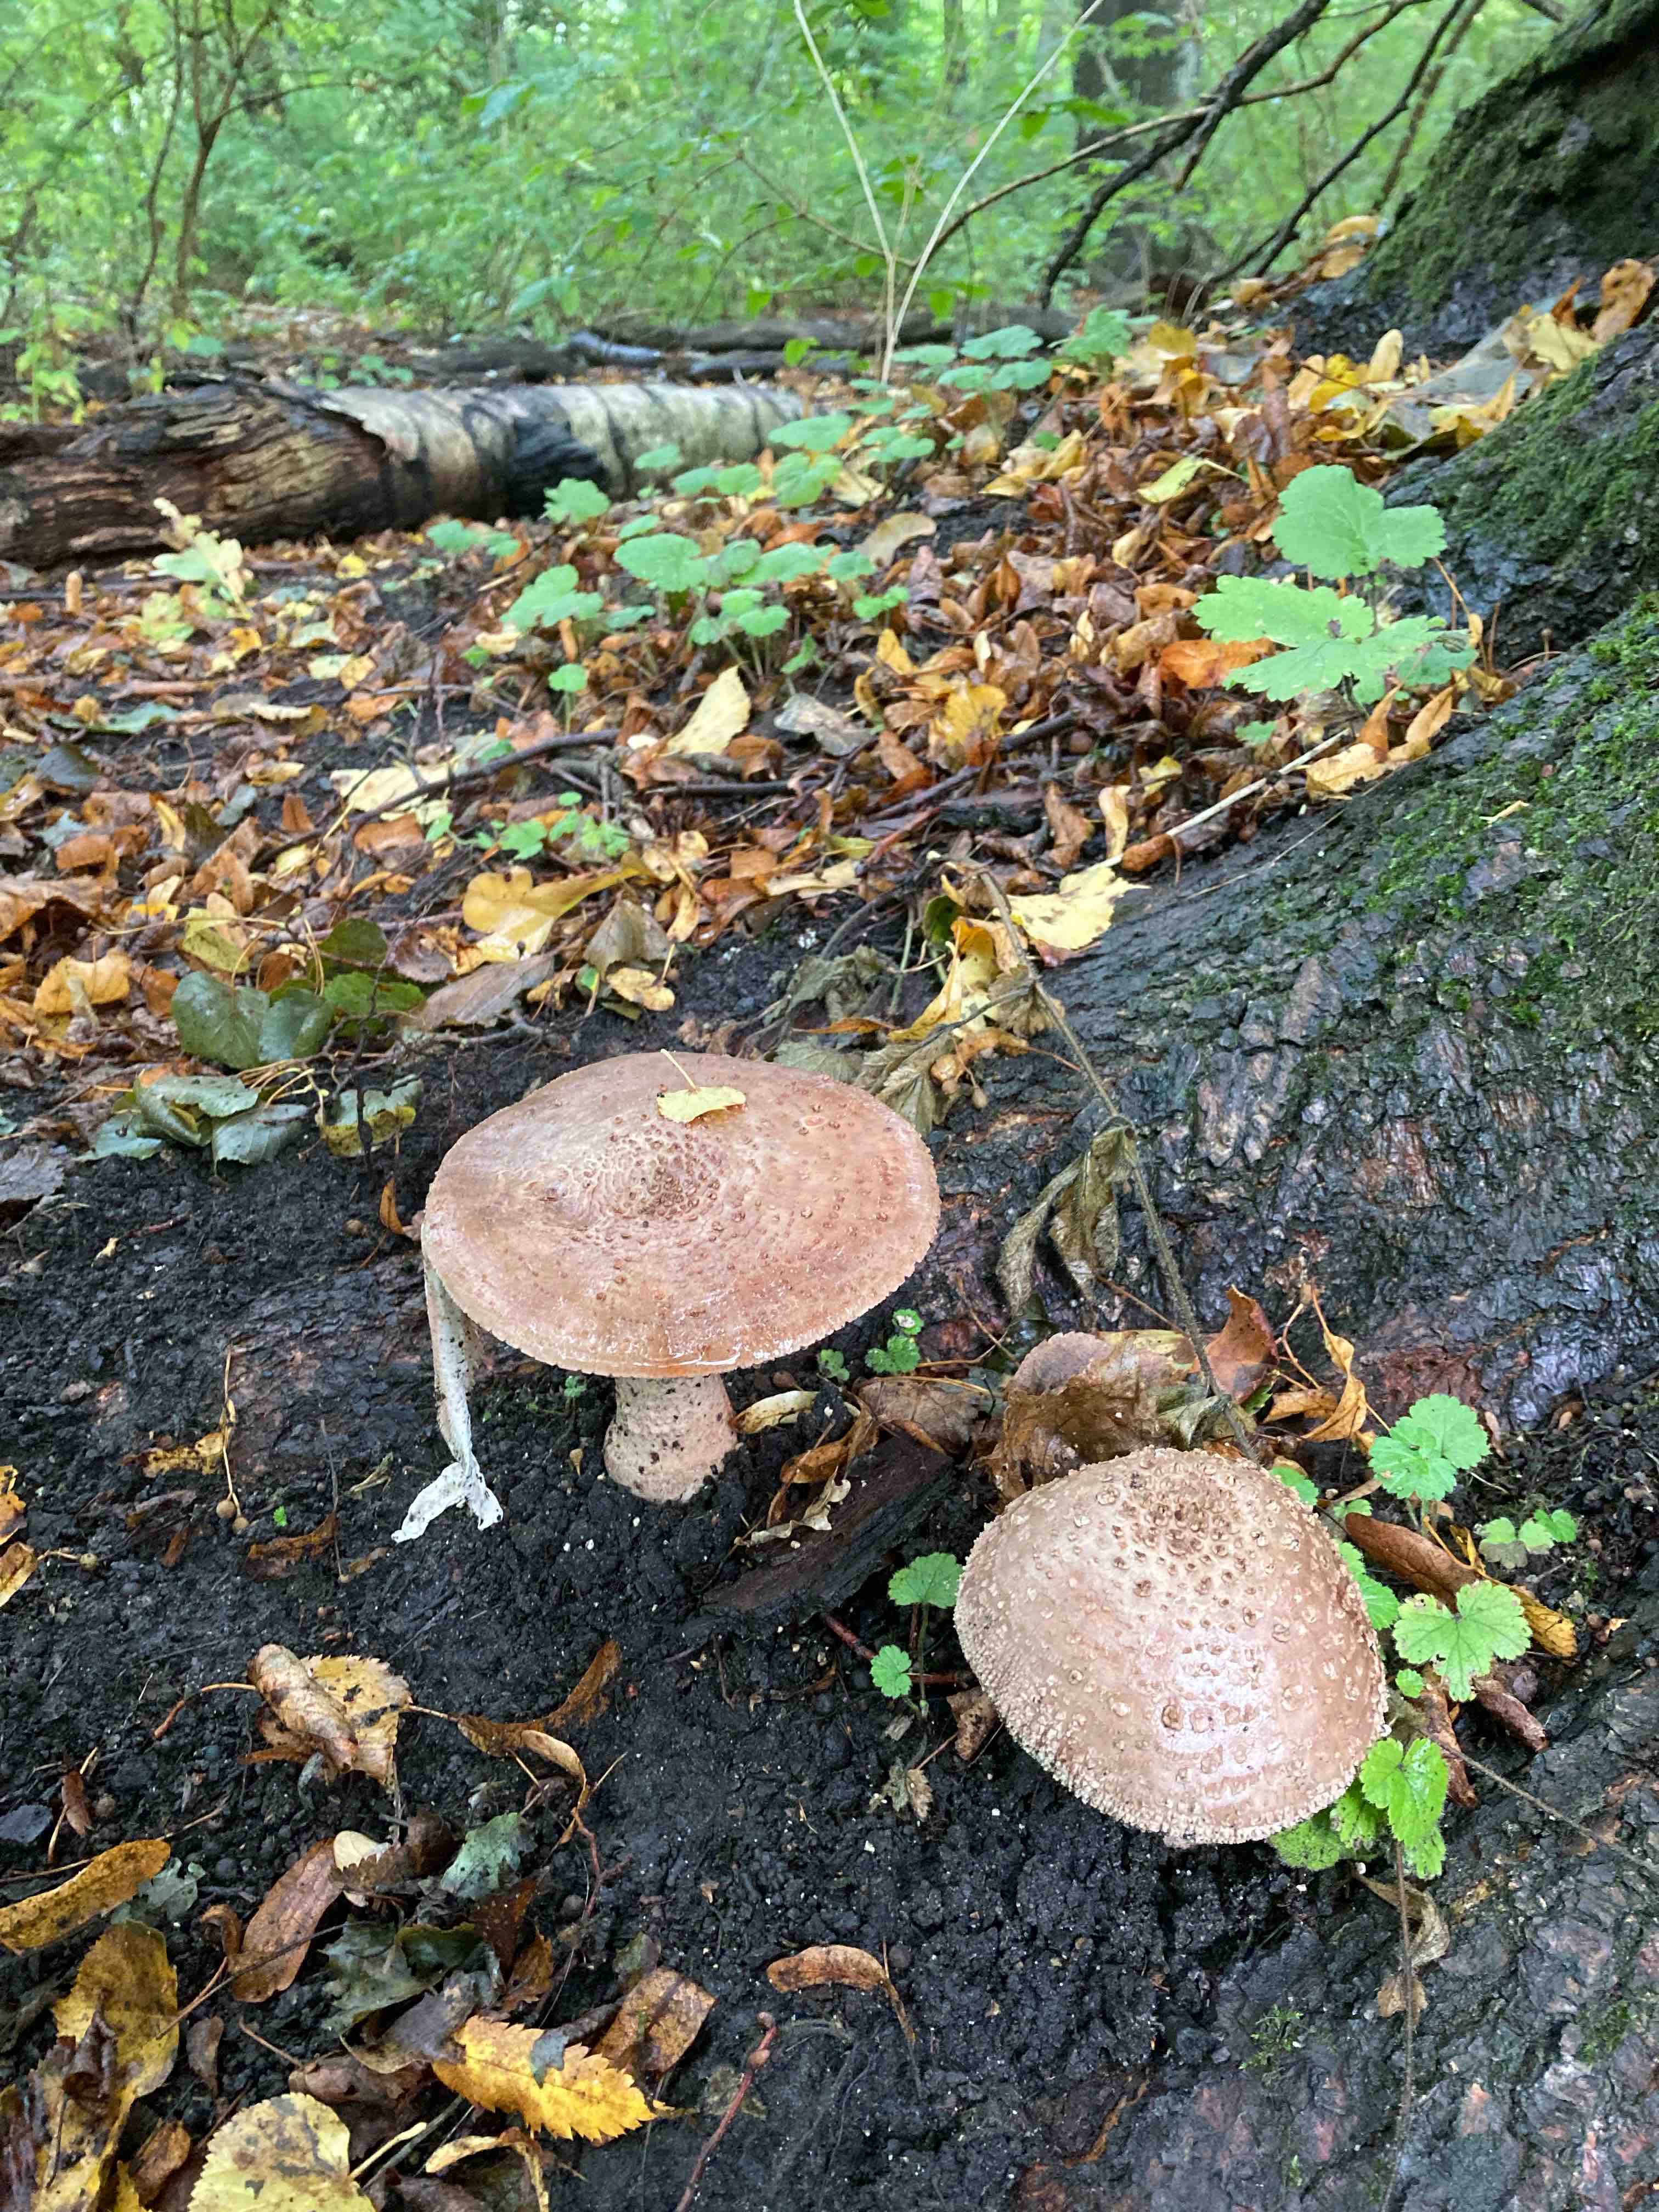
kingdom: Fungi
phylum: Basidiomycota
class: Agaricomycetes
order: Agaricales
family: Amanitaceae
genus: Amanita
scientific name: Amanita rubescens
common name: rødmende fluesvamp
